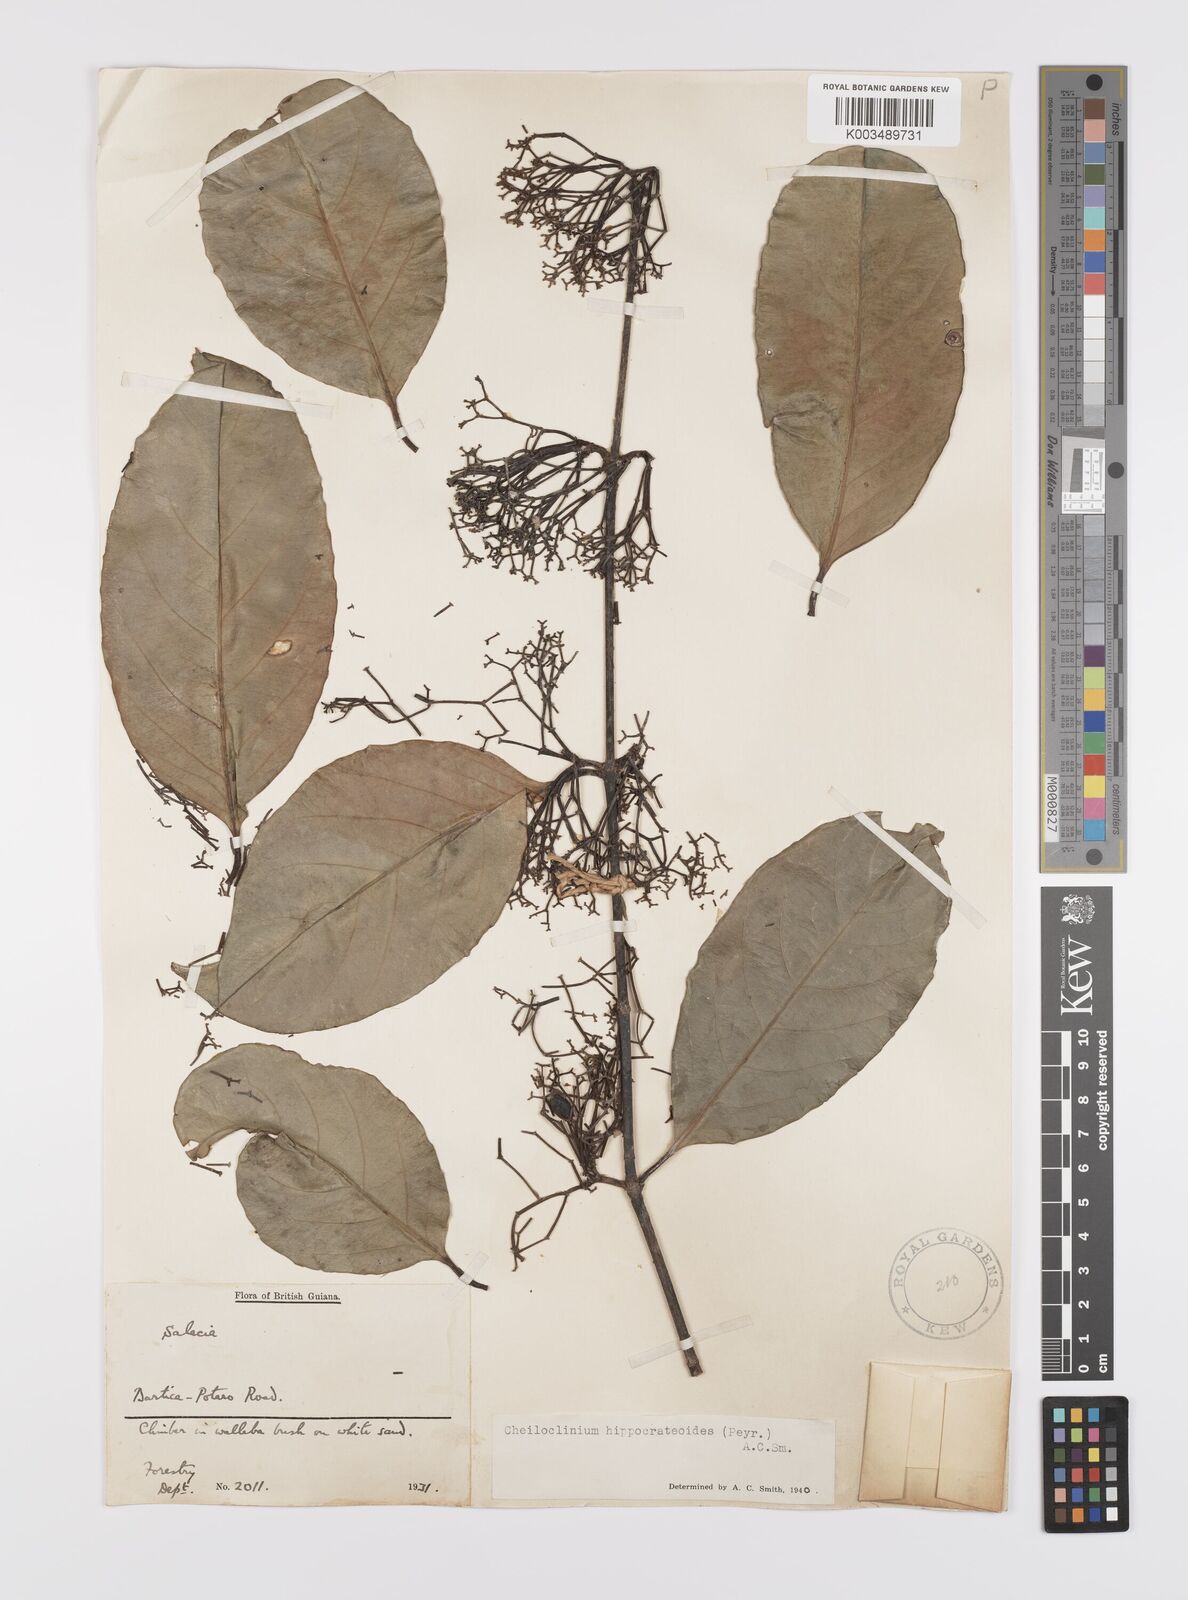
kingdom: Plantae
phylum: Tracheophyta
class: Magnoliopsida
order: Celastrales
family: Celastraceae
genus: Cheiloclinium
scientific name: Cheiloclinium hippocrateoides
